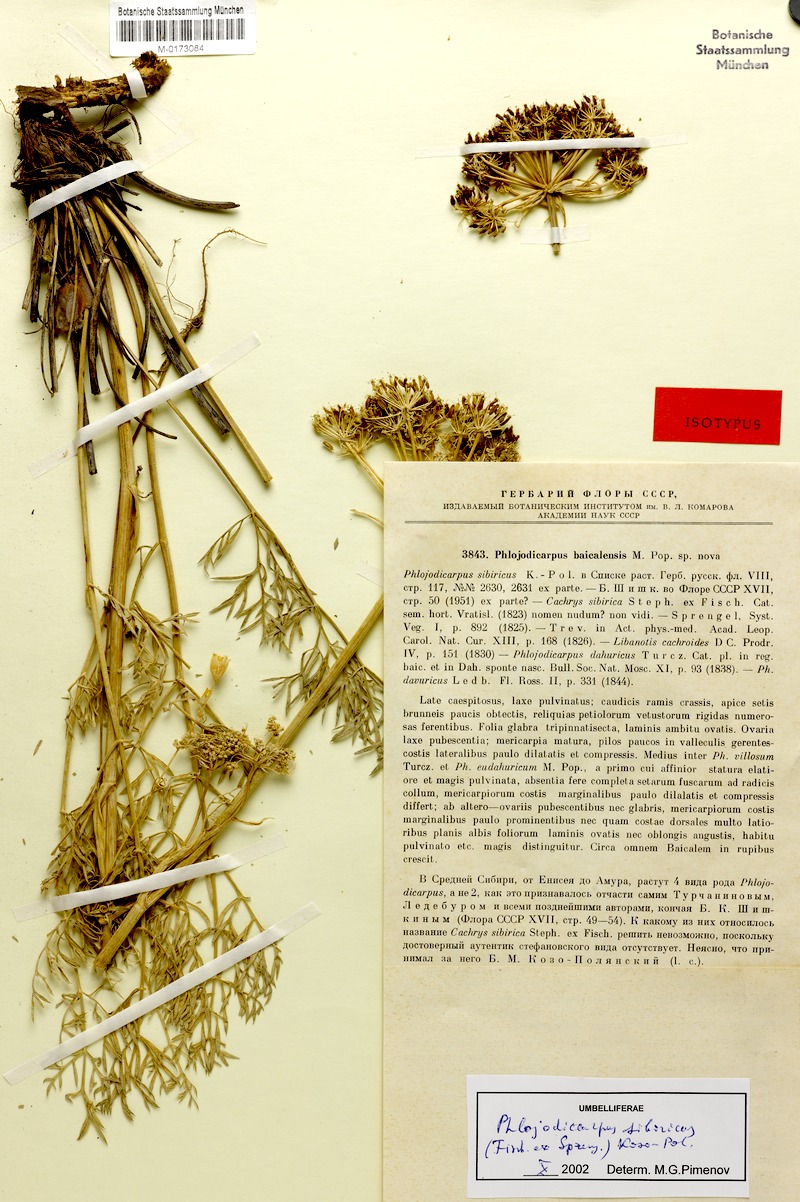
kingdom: Plantae
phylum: Tracheophyta
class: Magnoliopsida
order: Apiales
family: Apiaceae
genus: Phlojodicarpus
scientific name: Phlojodicarpus sibiricus
